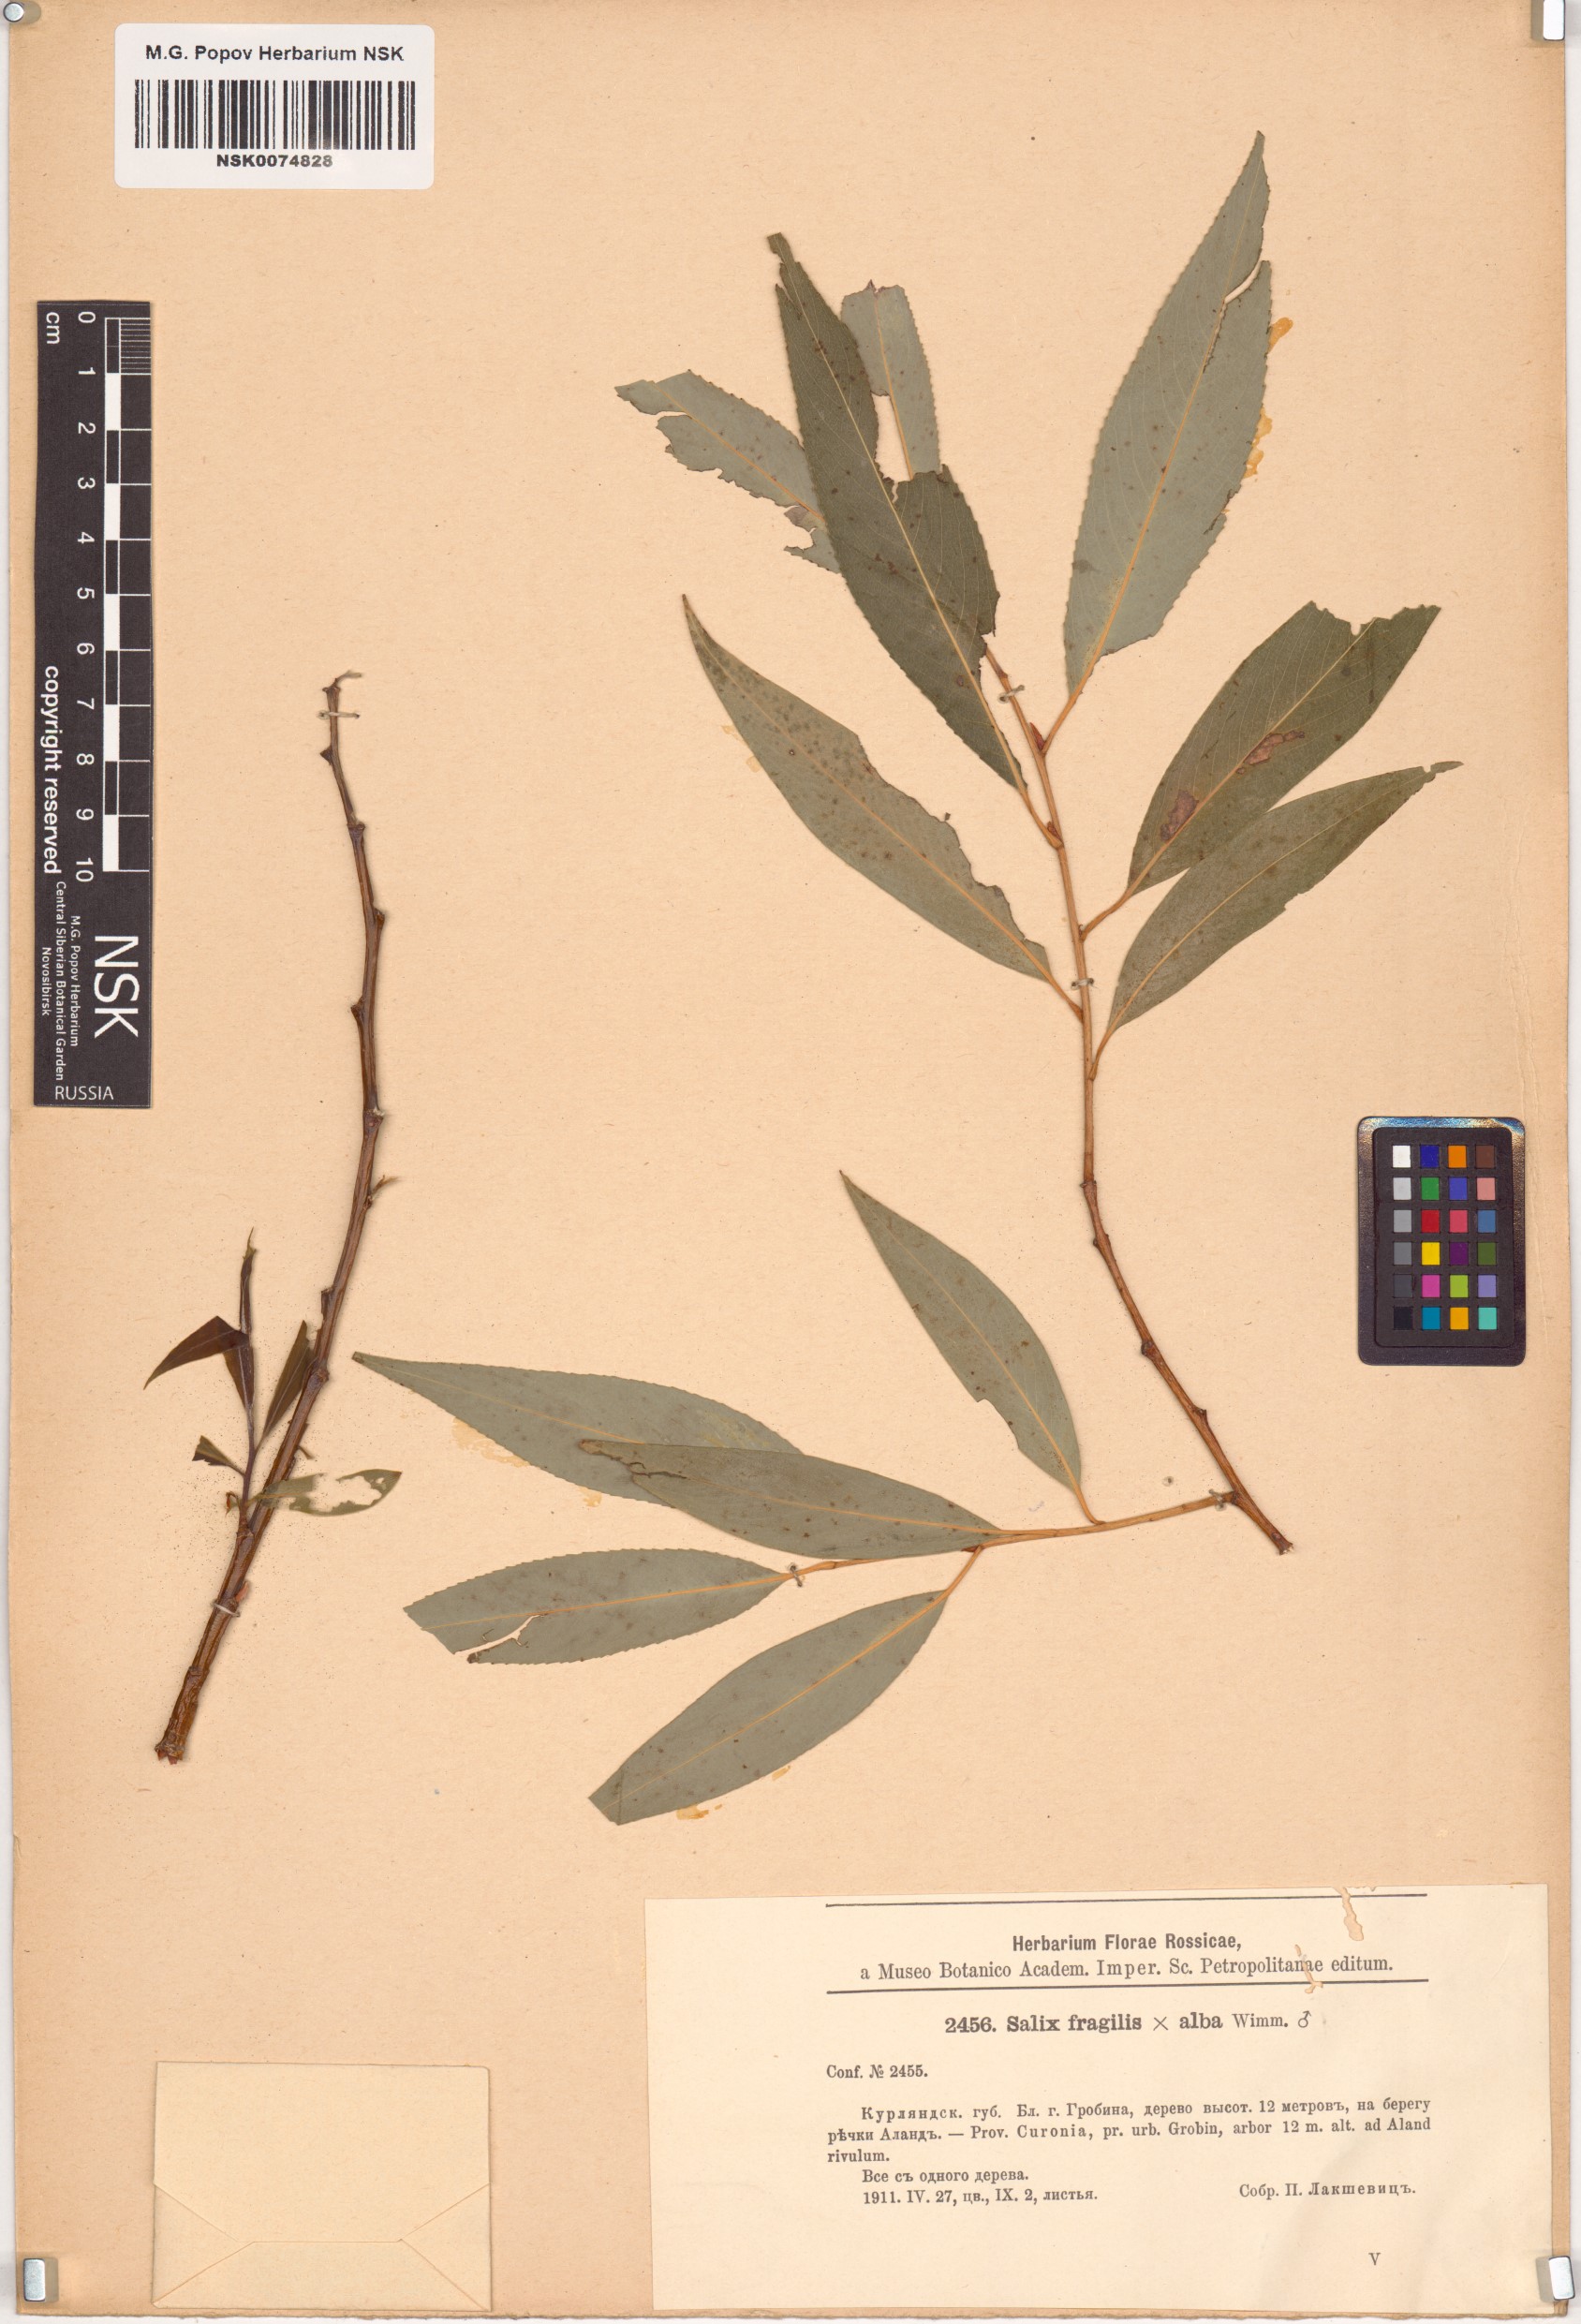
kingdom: Plantae
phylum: Tracheophyta
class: Magnoliopsida
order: Malpighiales
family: Salicaceae
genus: Salix
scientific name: Salix
